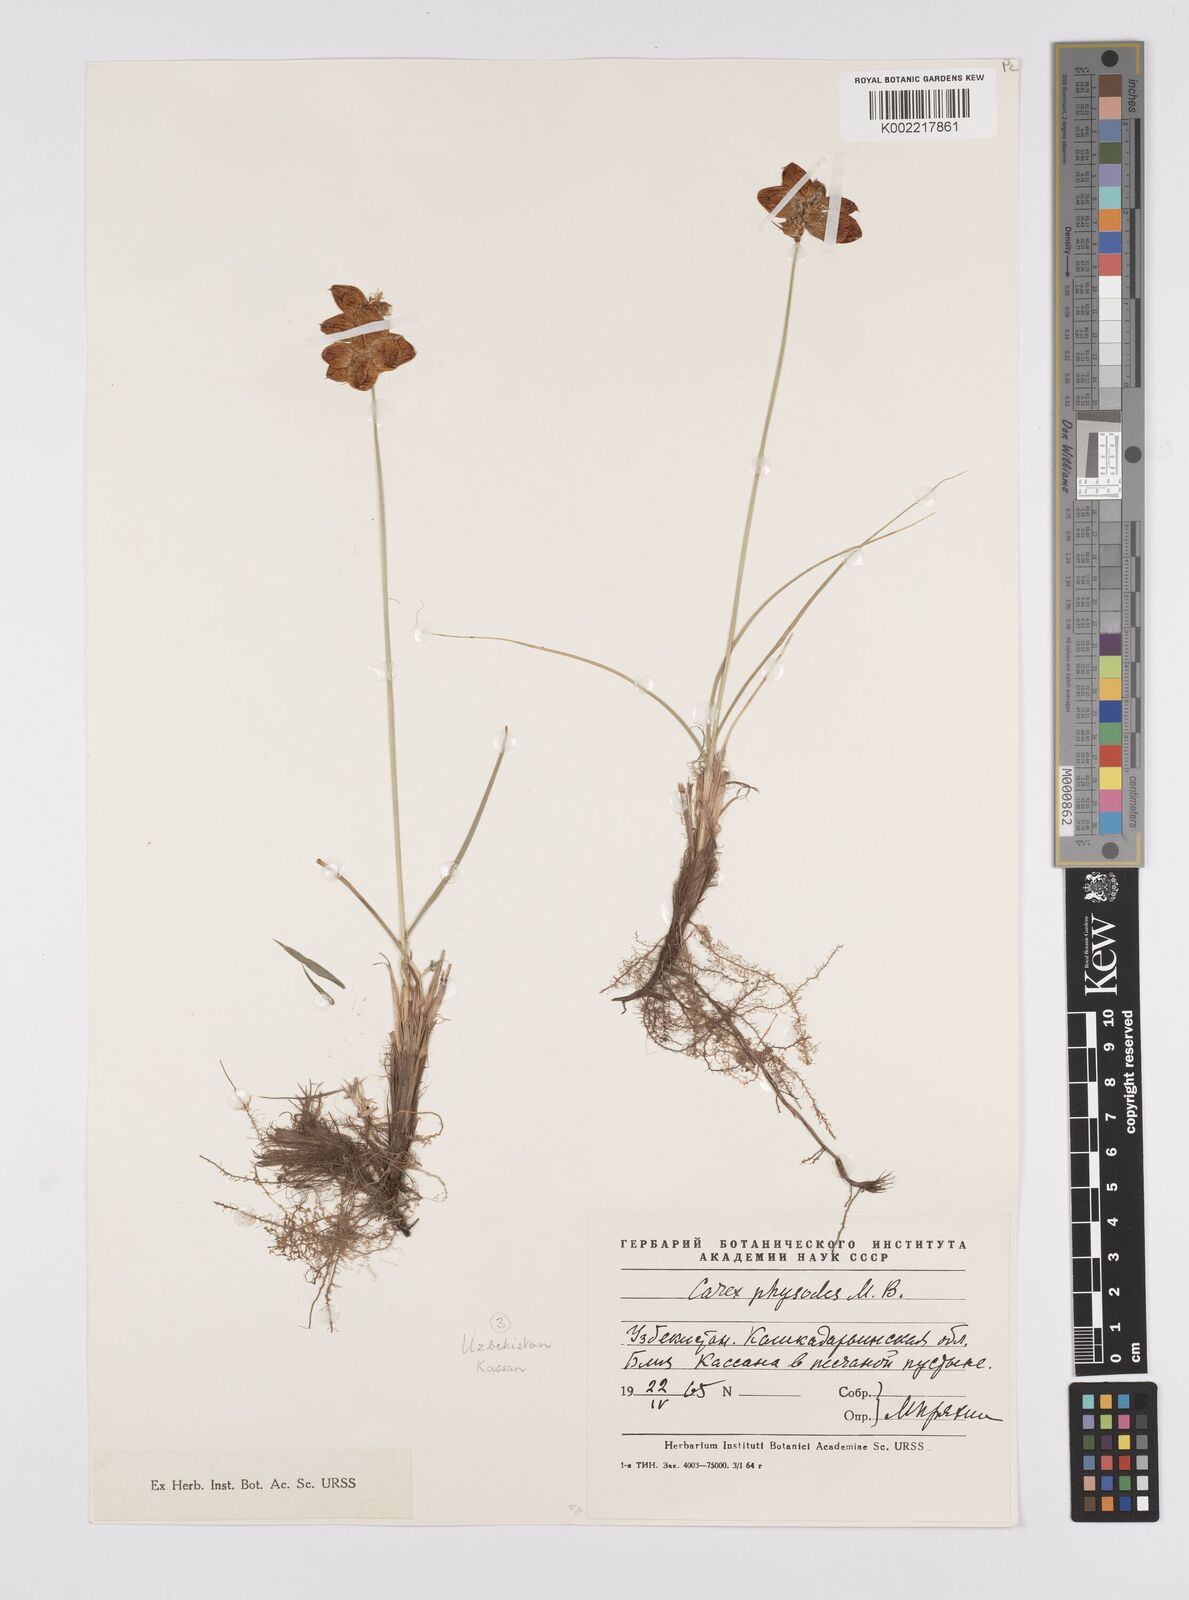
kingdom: Plantae
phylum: Tracheophyta
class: Liliopsida
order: Poales
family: Cyperaceae
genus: Carex
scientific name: Carex physodes
